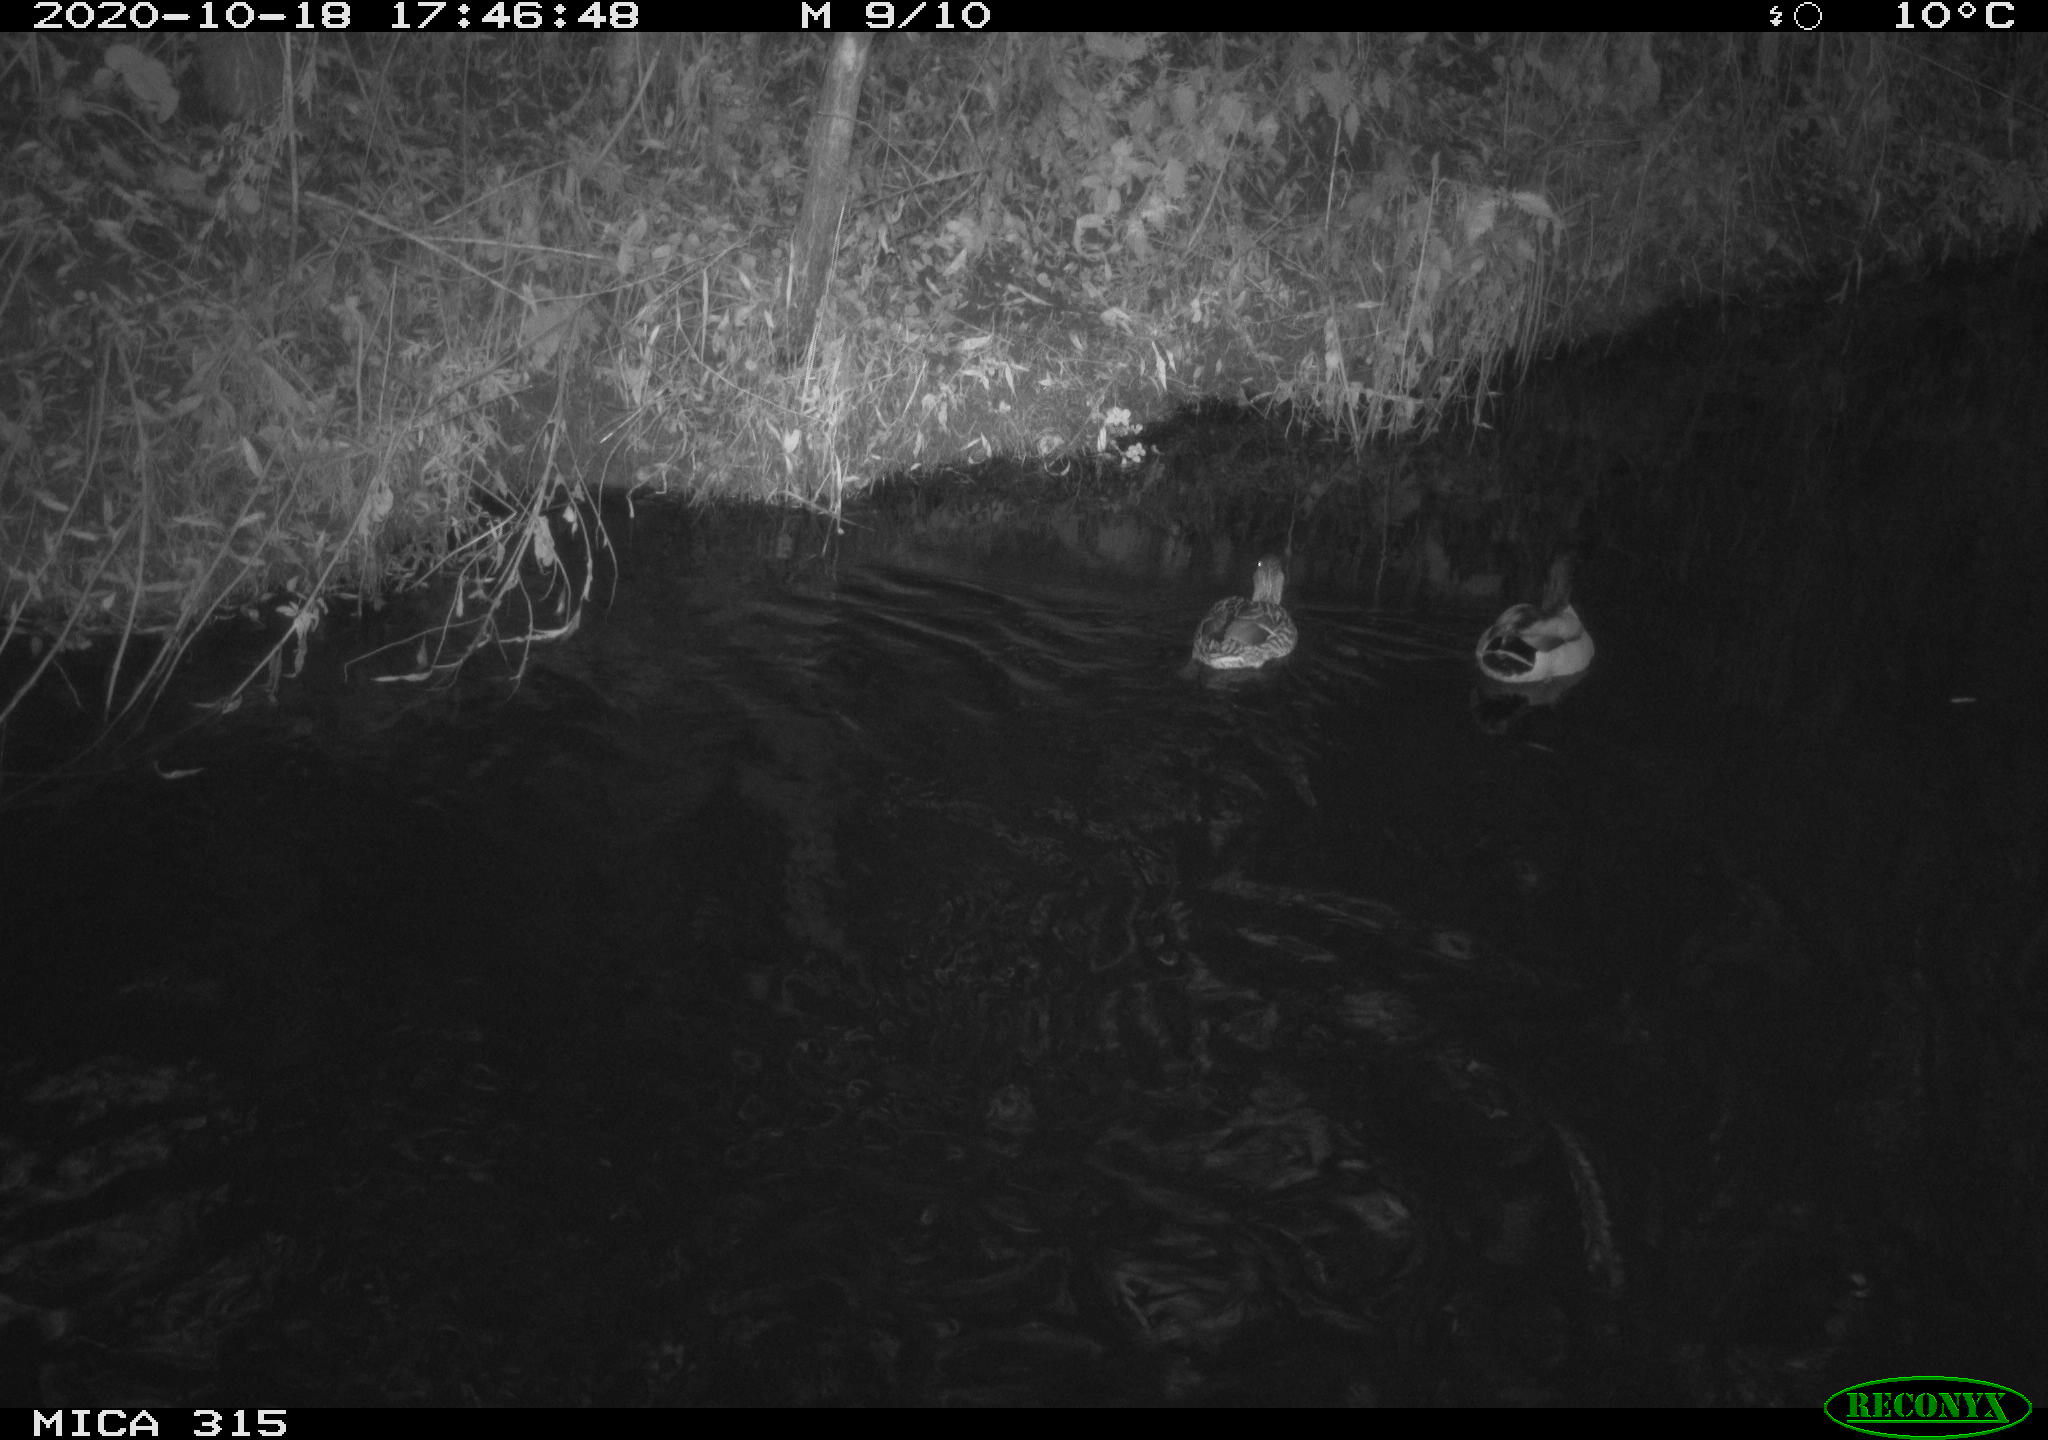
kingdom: Animalia
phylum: Chordata
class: Aves
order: Anseriformes
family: Anatidae
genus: Anas
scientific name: Anas platyrhynchos
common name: Mallard
